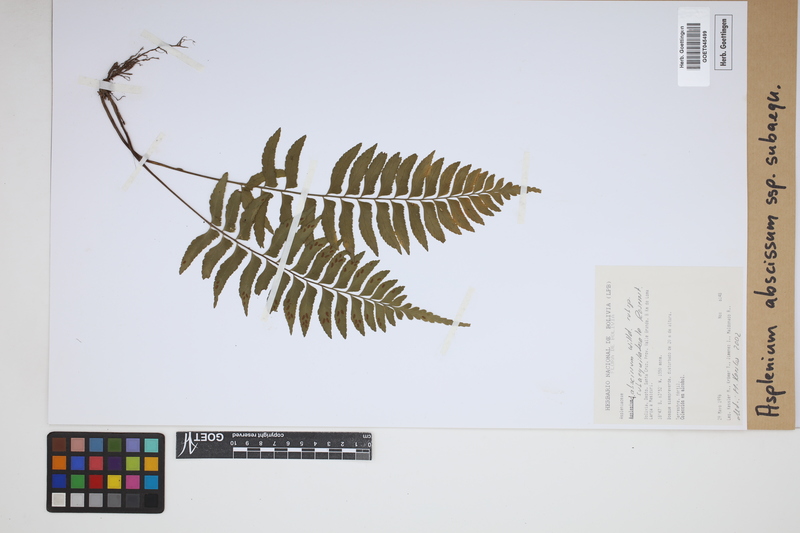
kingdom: Plantae
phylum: Tracheophyta
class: Polypodiopsida
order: Polypodiales
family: Aspleniaceae
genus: Asplenium
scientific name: Asplenium abscissum
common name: Cutleaf spleenwort
